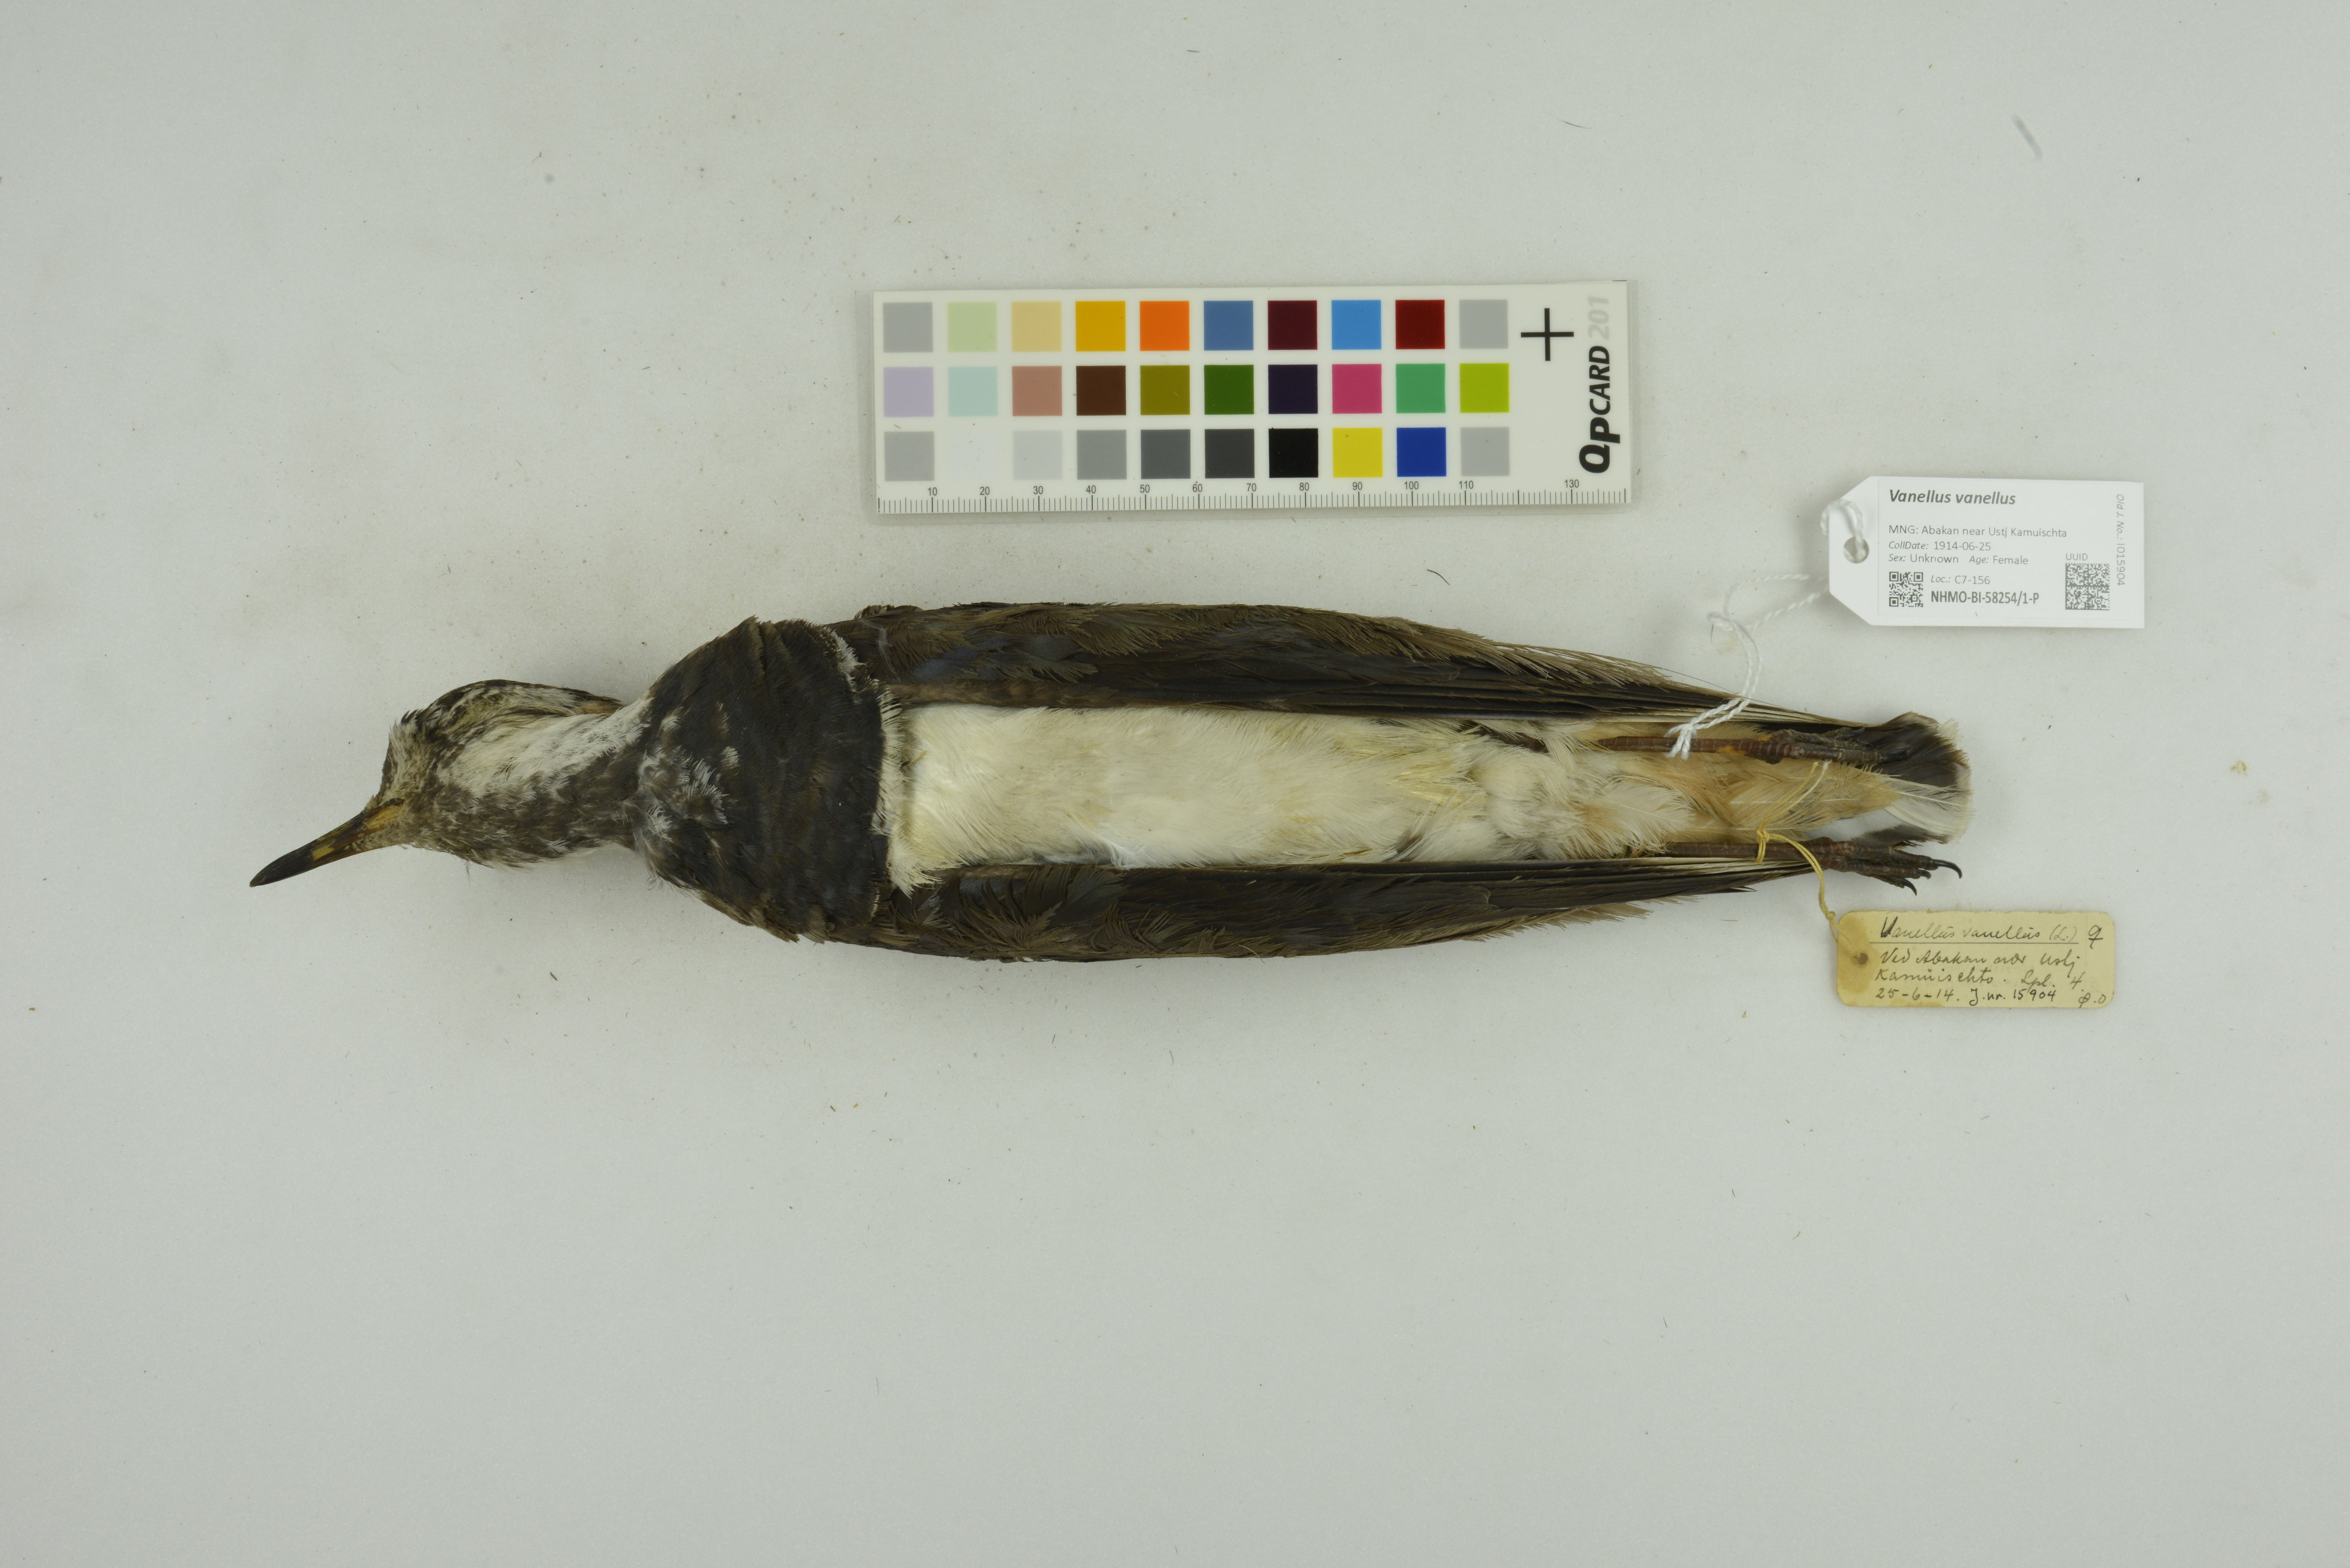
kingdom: Animalia
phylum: Chordata
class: Aves
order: Charadriiformes
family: Charadriidae
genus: Vanellus
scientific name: Vanellus vanellus
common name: Northern lapwing
